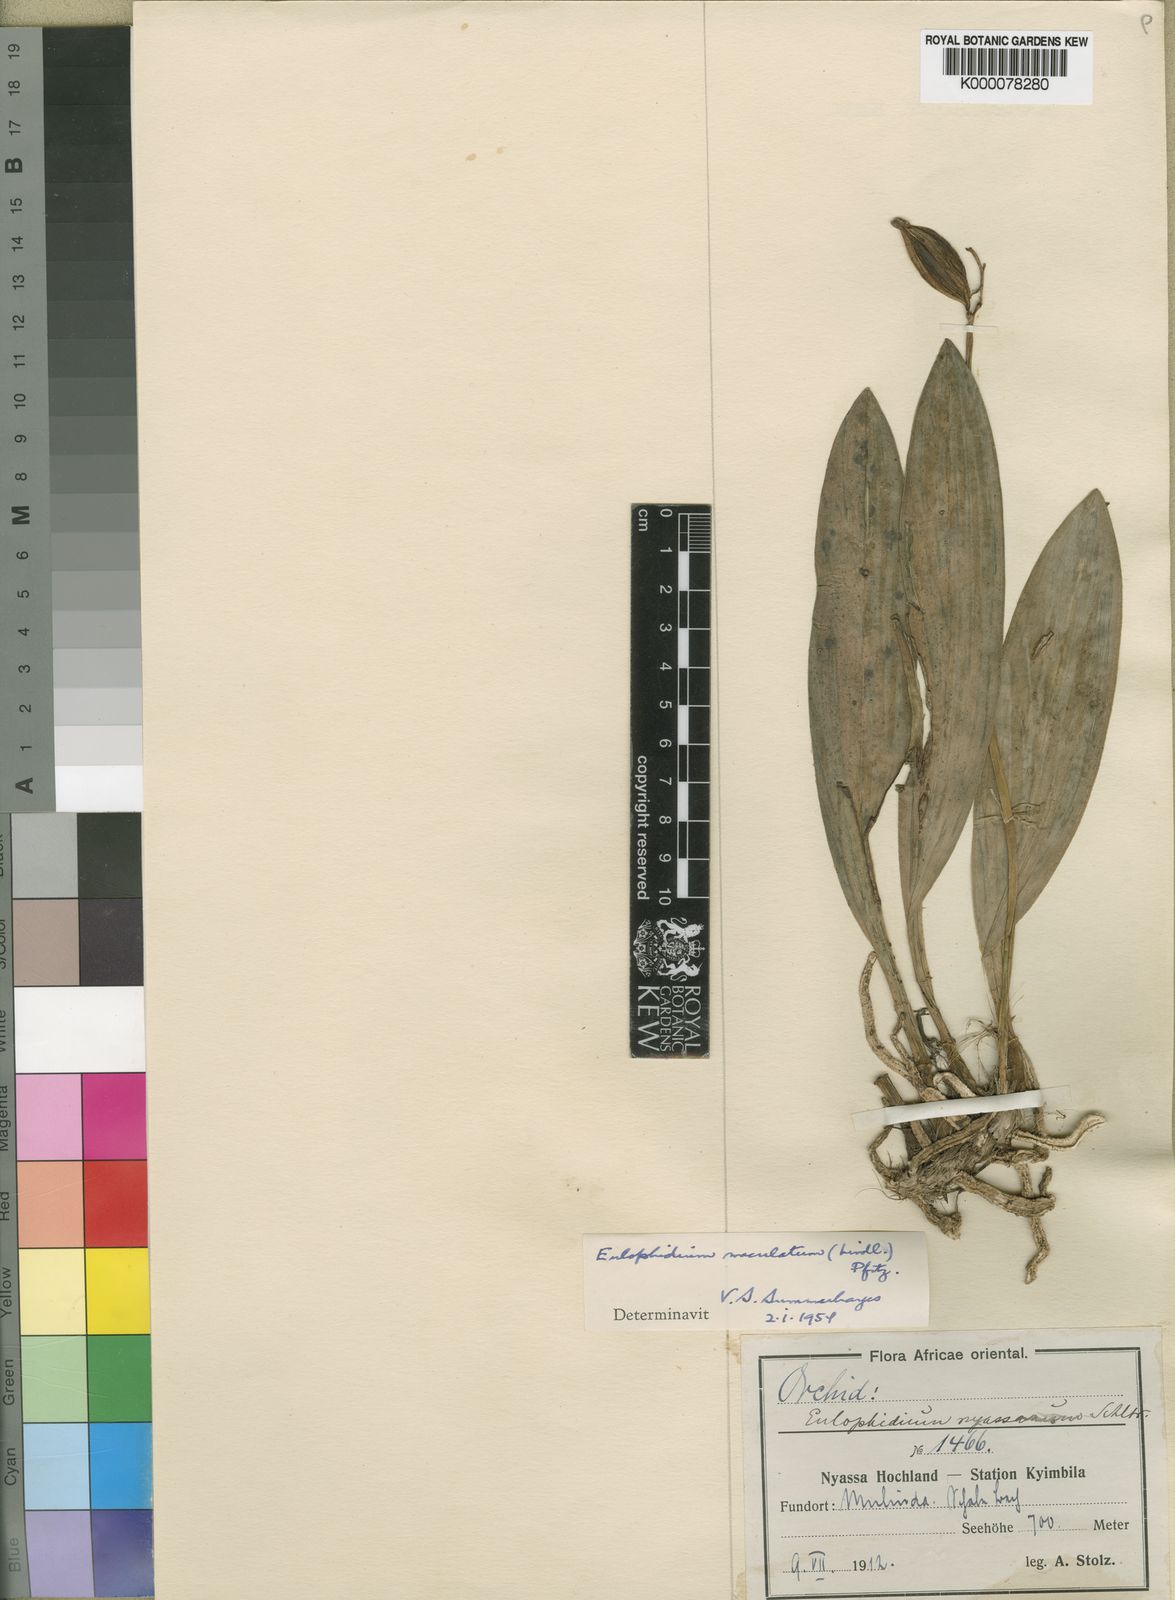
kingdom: Plantae
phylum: Tracheophyta
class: Liliopsida
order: Asparagales
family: Orchidaceae
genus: Eulophia
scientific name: Eulophia maculata
